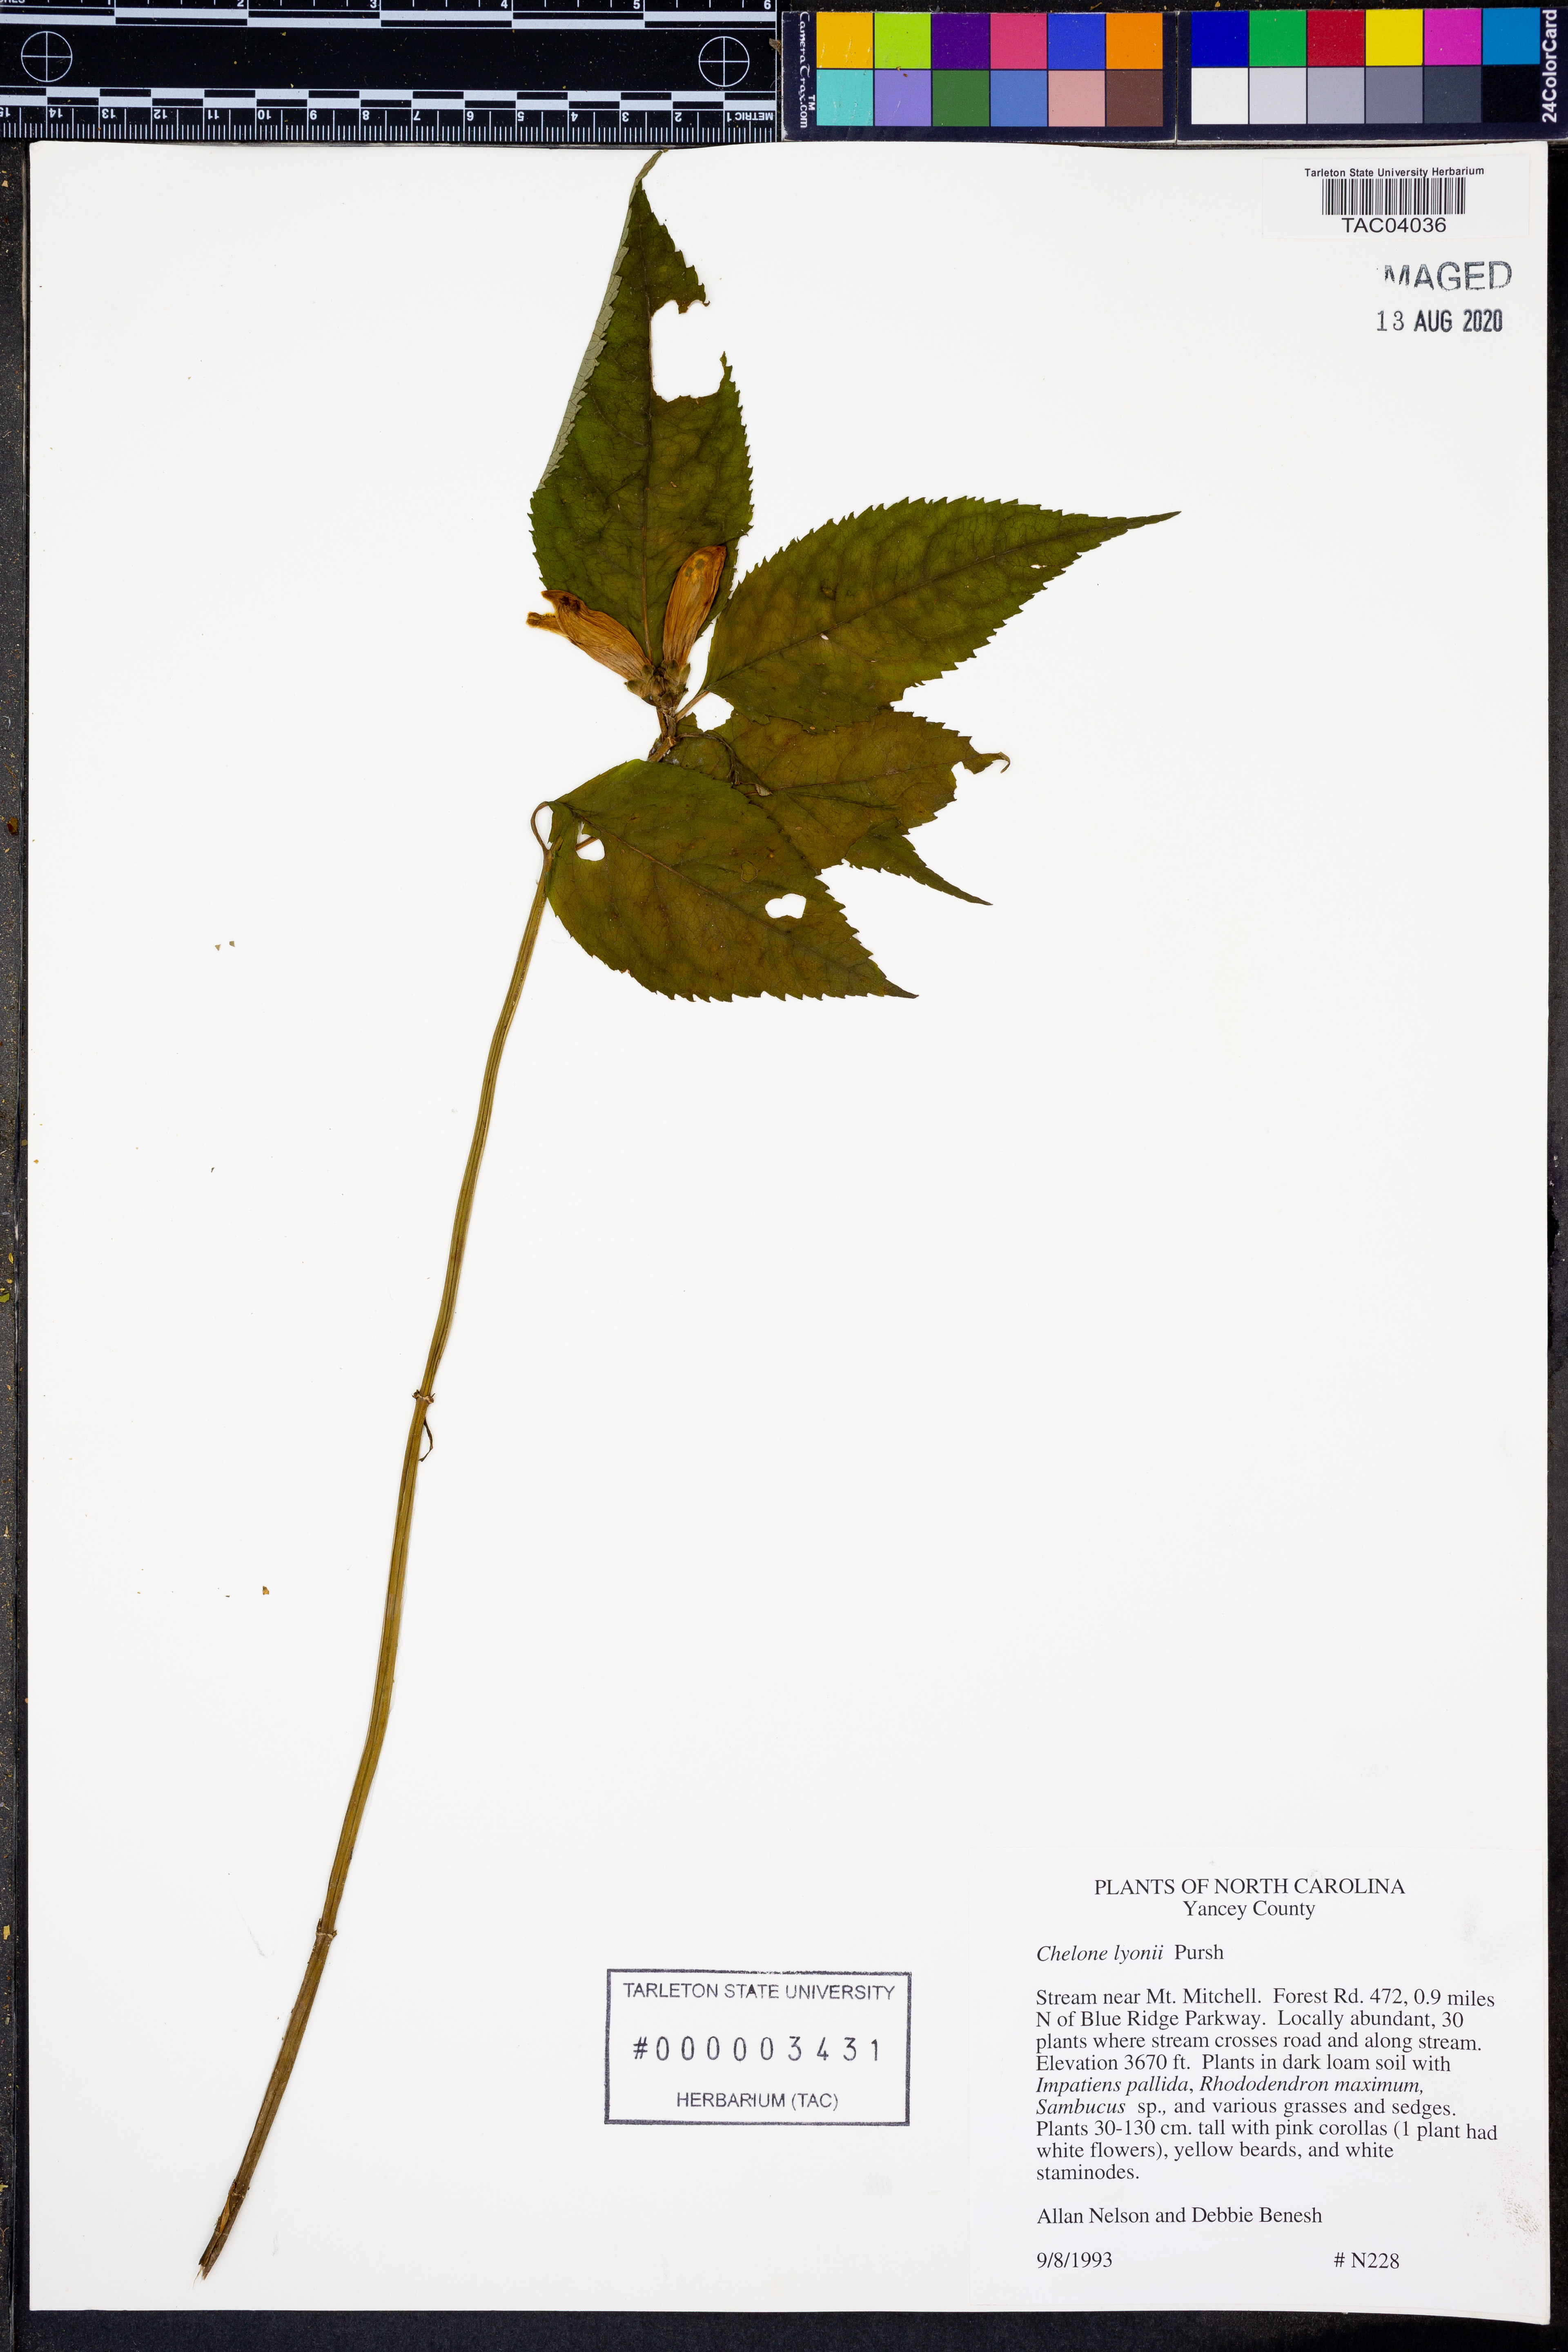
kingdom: Plantae
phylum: Tracheophyta
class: Magnoliopsida
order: Lamiales
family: Plantaginaceae
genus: Chelone
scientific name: Chelone lyonii
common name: Pink turtlehead
